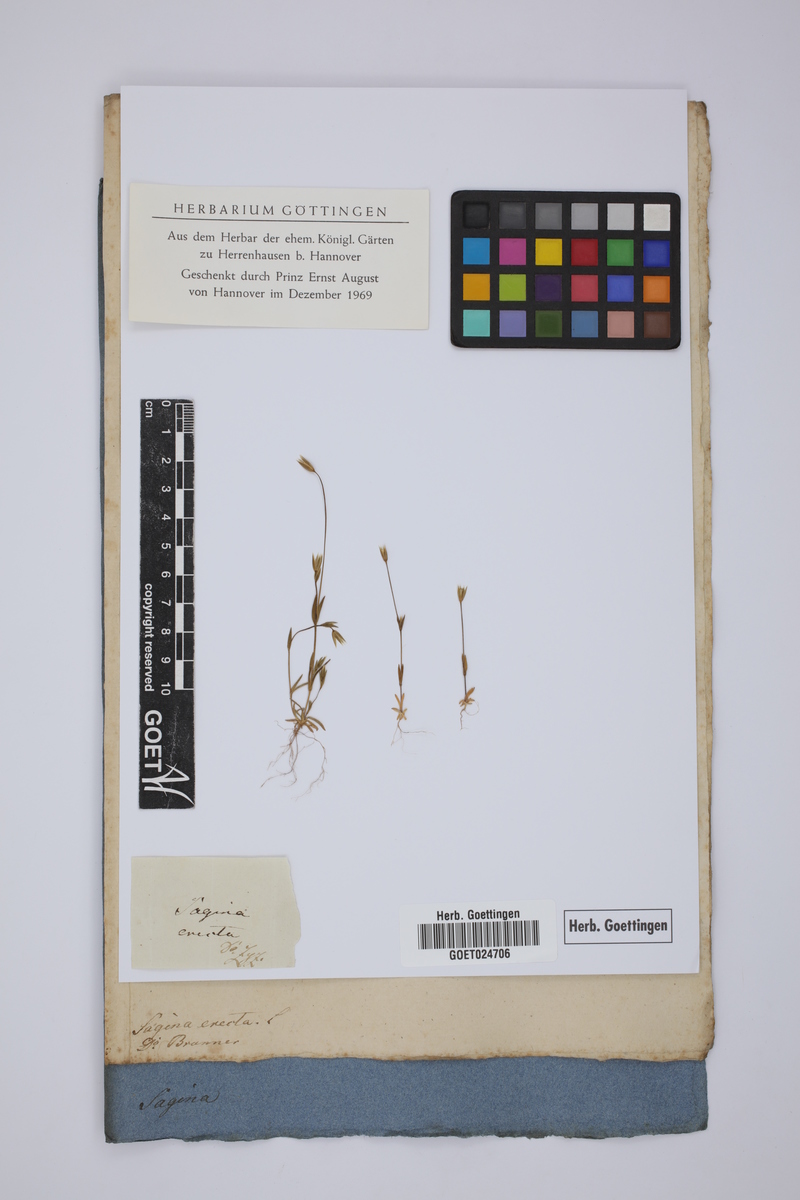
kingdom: Plantae
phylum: Tracheophyta
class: Magnoliopsida
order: Caryophyllales
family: Caryophyllaceae
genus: Moenchia
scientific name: Moenchia erecta
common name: Upright chickweed
